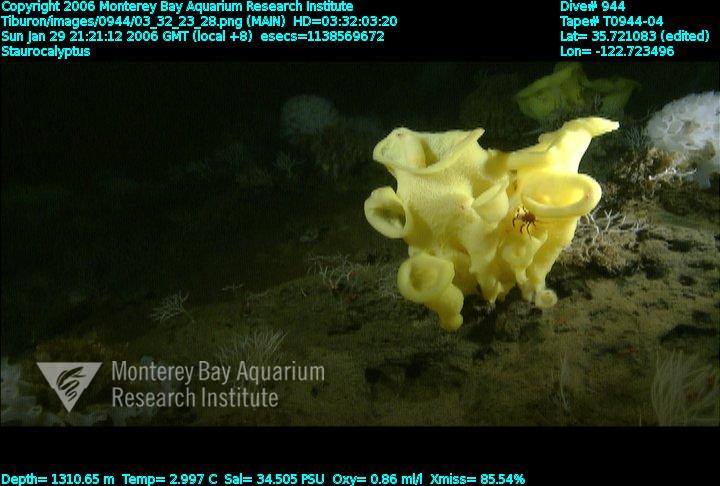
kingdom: Animalia
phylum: Porifera
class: Hexactinellida
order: Lyssacinosida
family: Rossellidae
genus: Staurocalyptus
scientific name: Staurocalyptus
